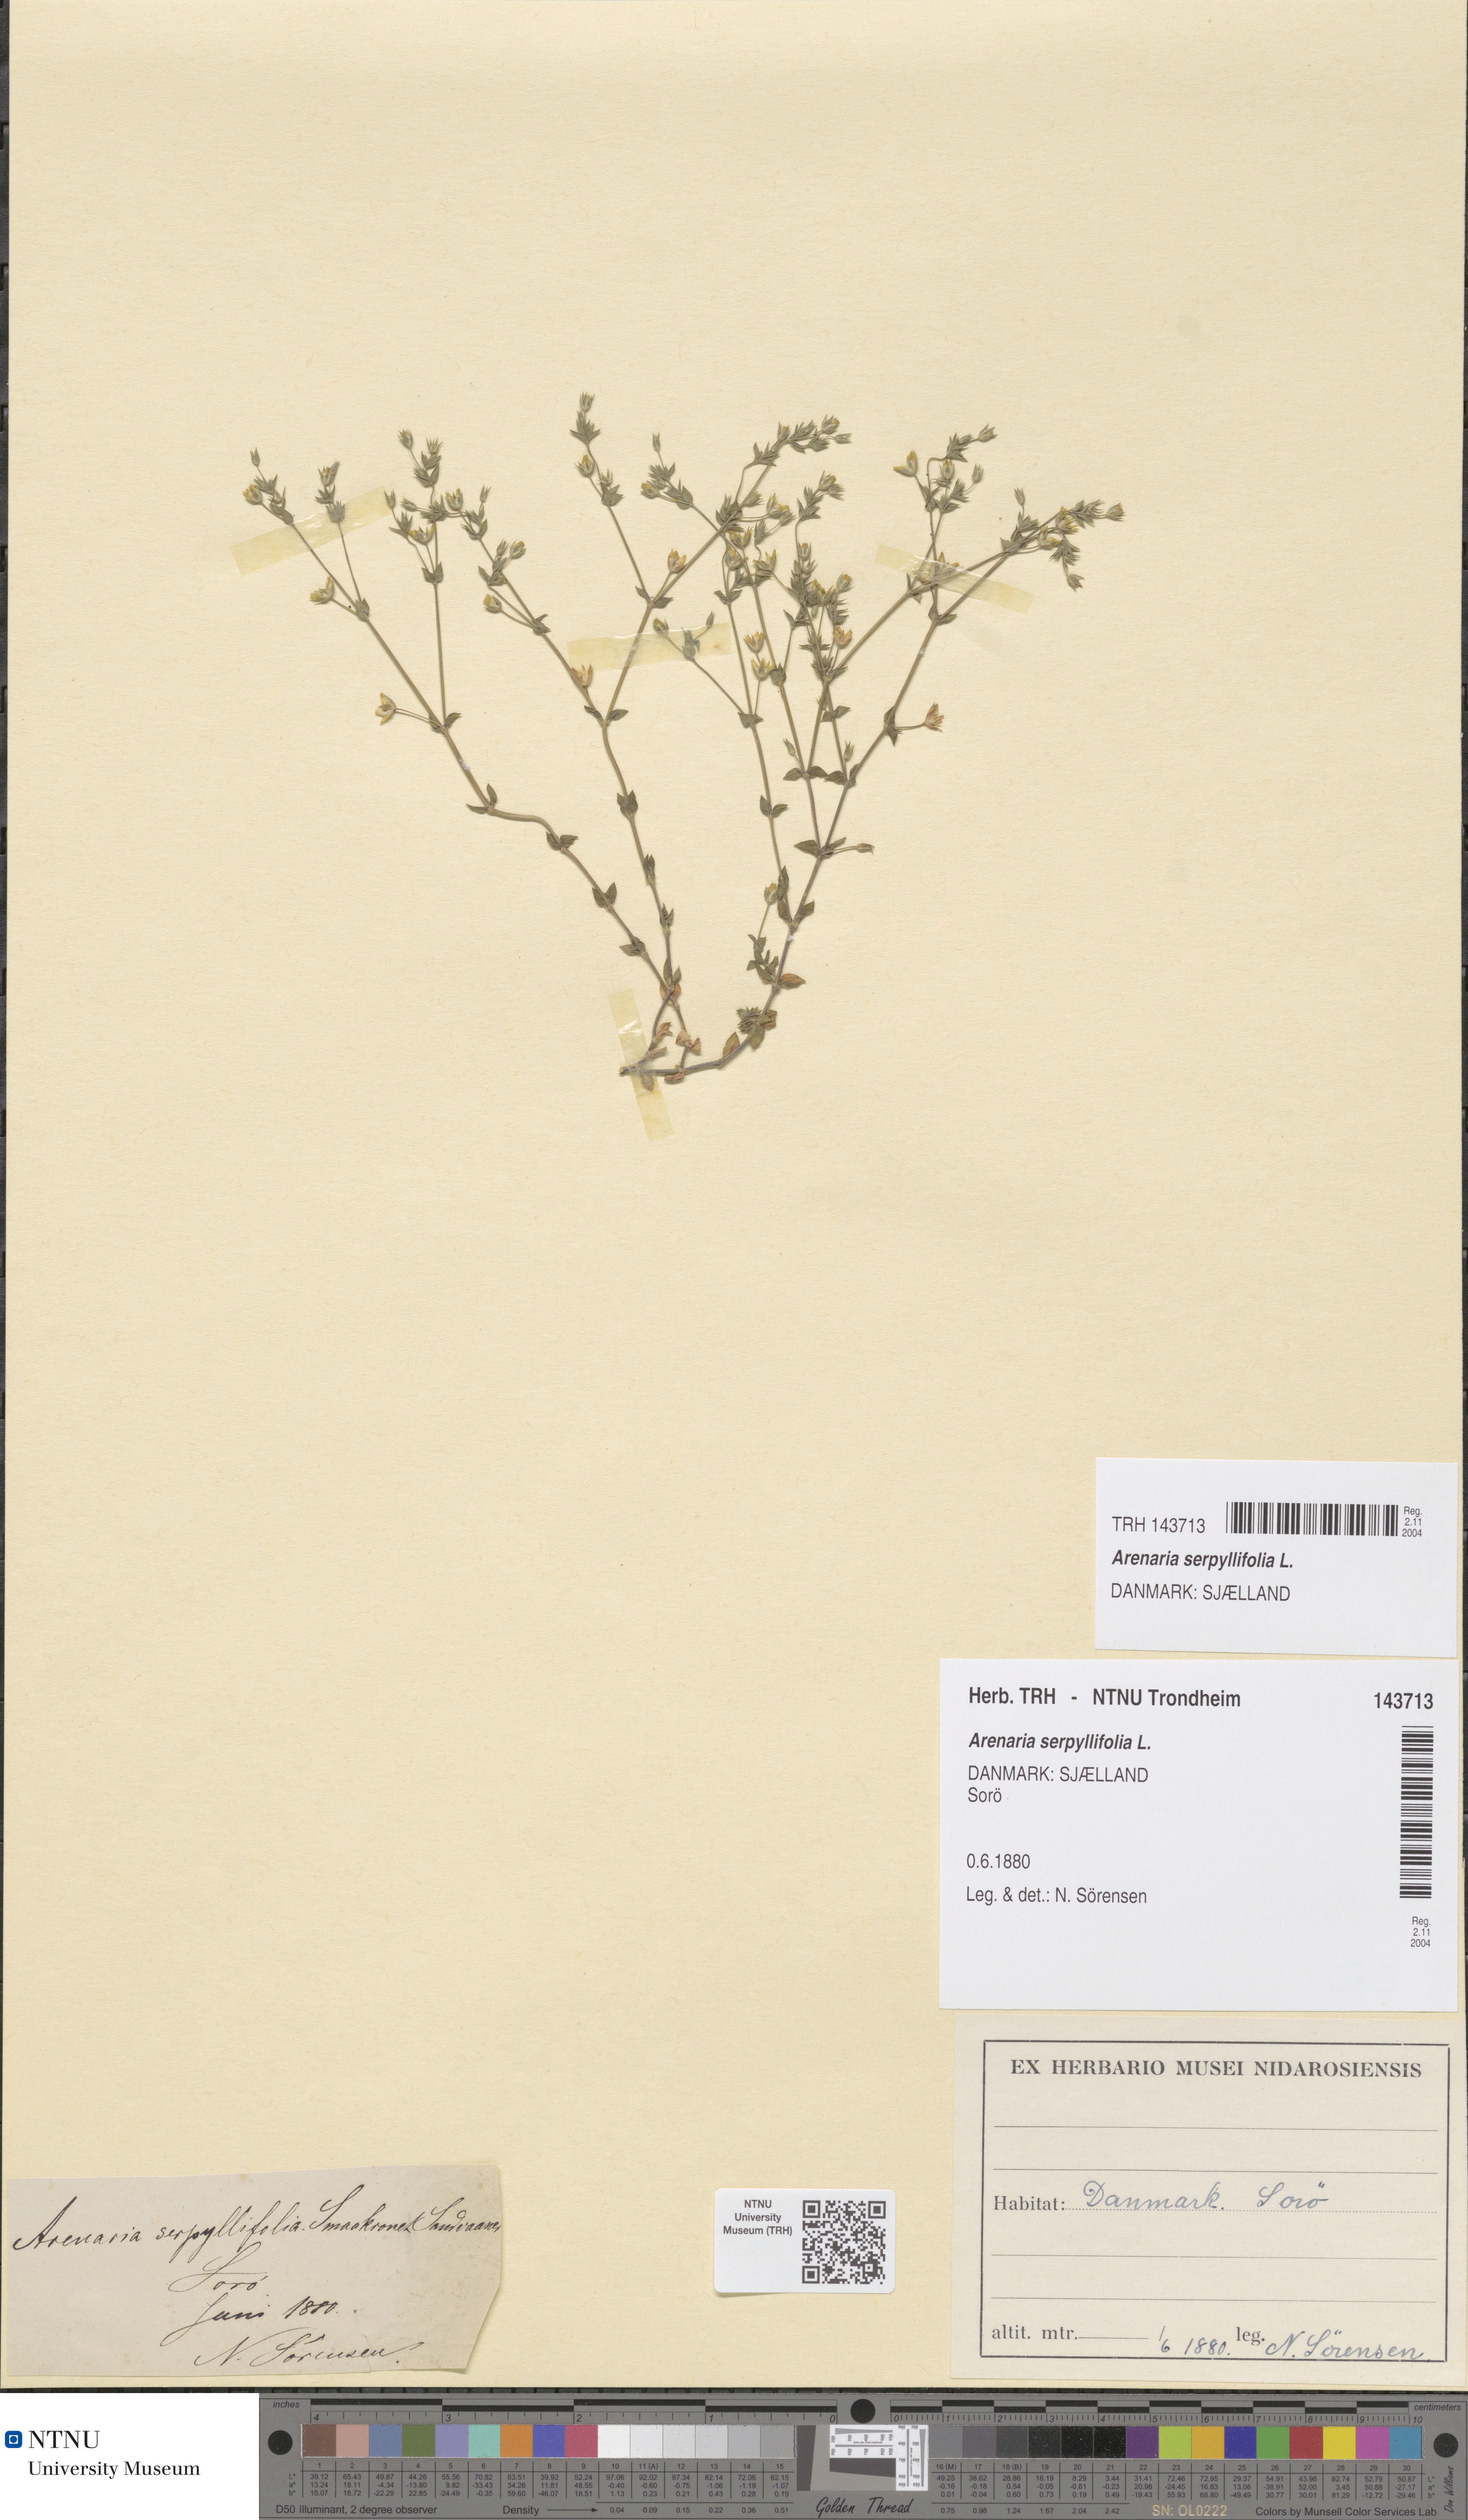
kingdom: Plantae
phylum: Tracheophyta
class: Magnoliopsida
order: Caryophyllales
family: Caryophyllaceae
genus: Arenaria
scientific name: Arenaria serpyllifolia
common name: Thyme-leaved sandwort
